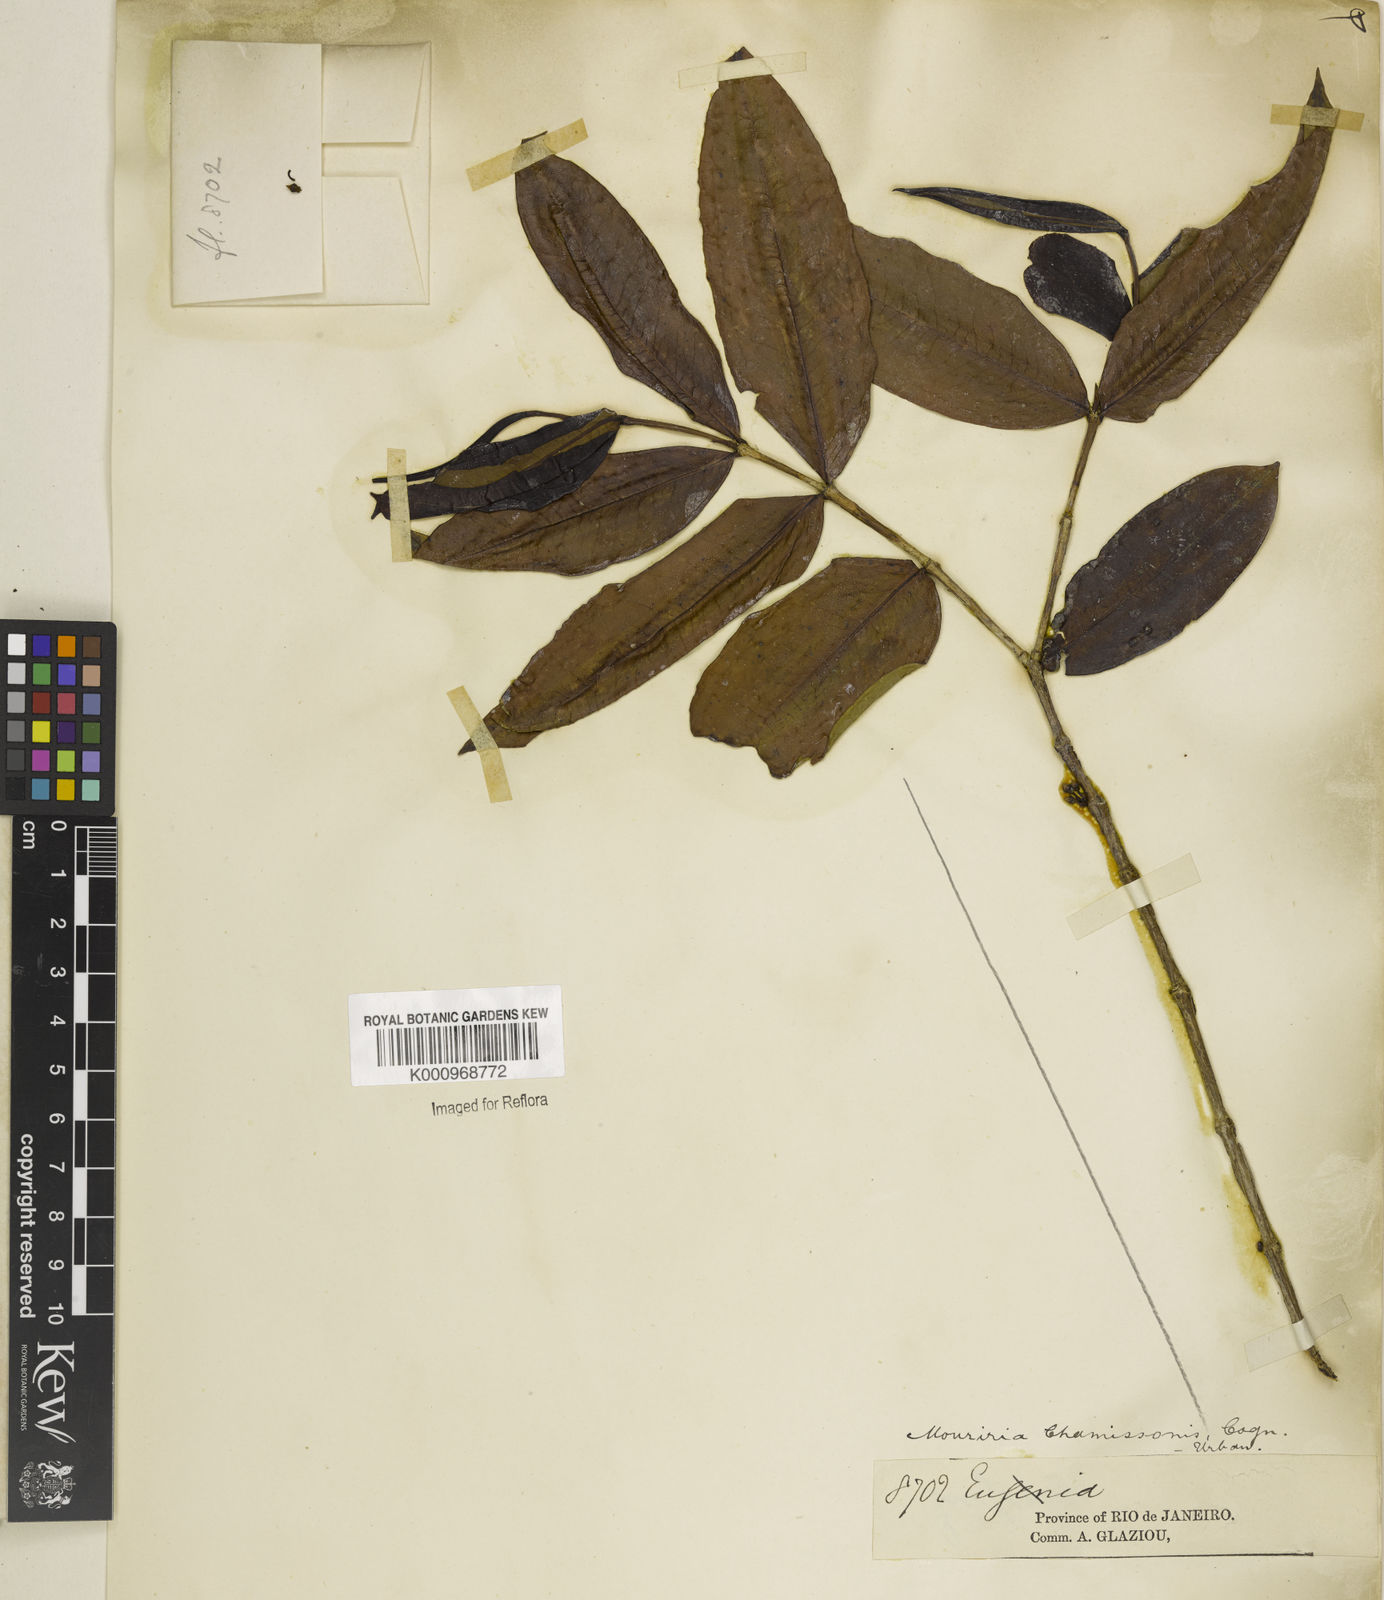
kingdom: Plantae
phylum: Tracheophyta
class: Magnoliopsida
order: Myrtales
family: Melastomataceae
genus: Mouriri
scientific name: Mouriri chamissoana
